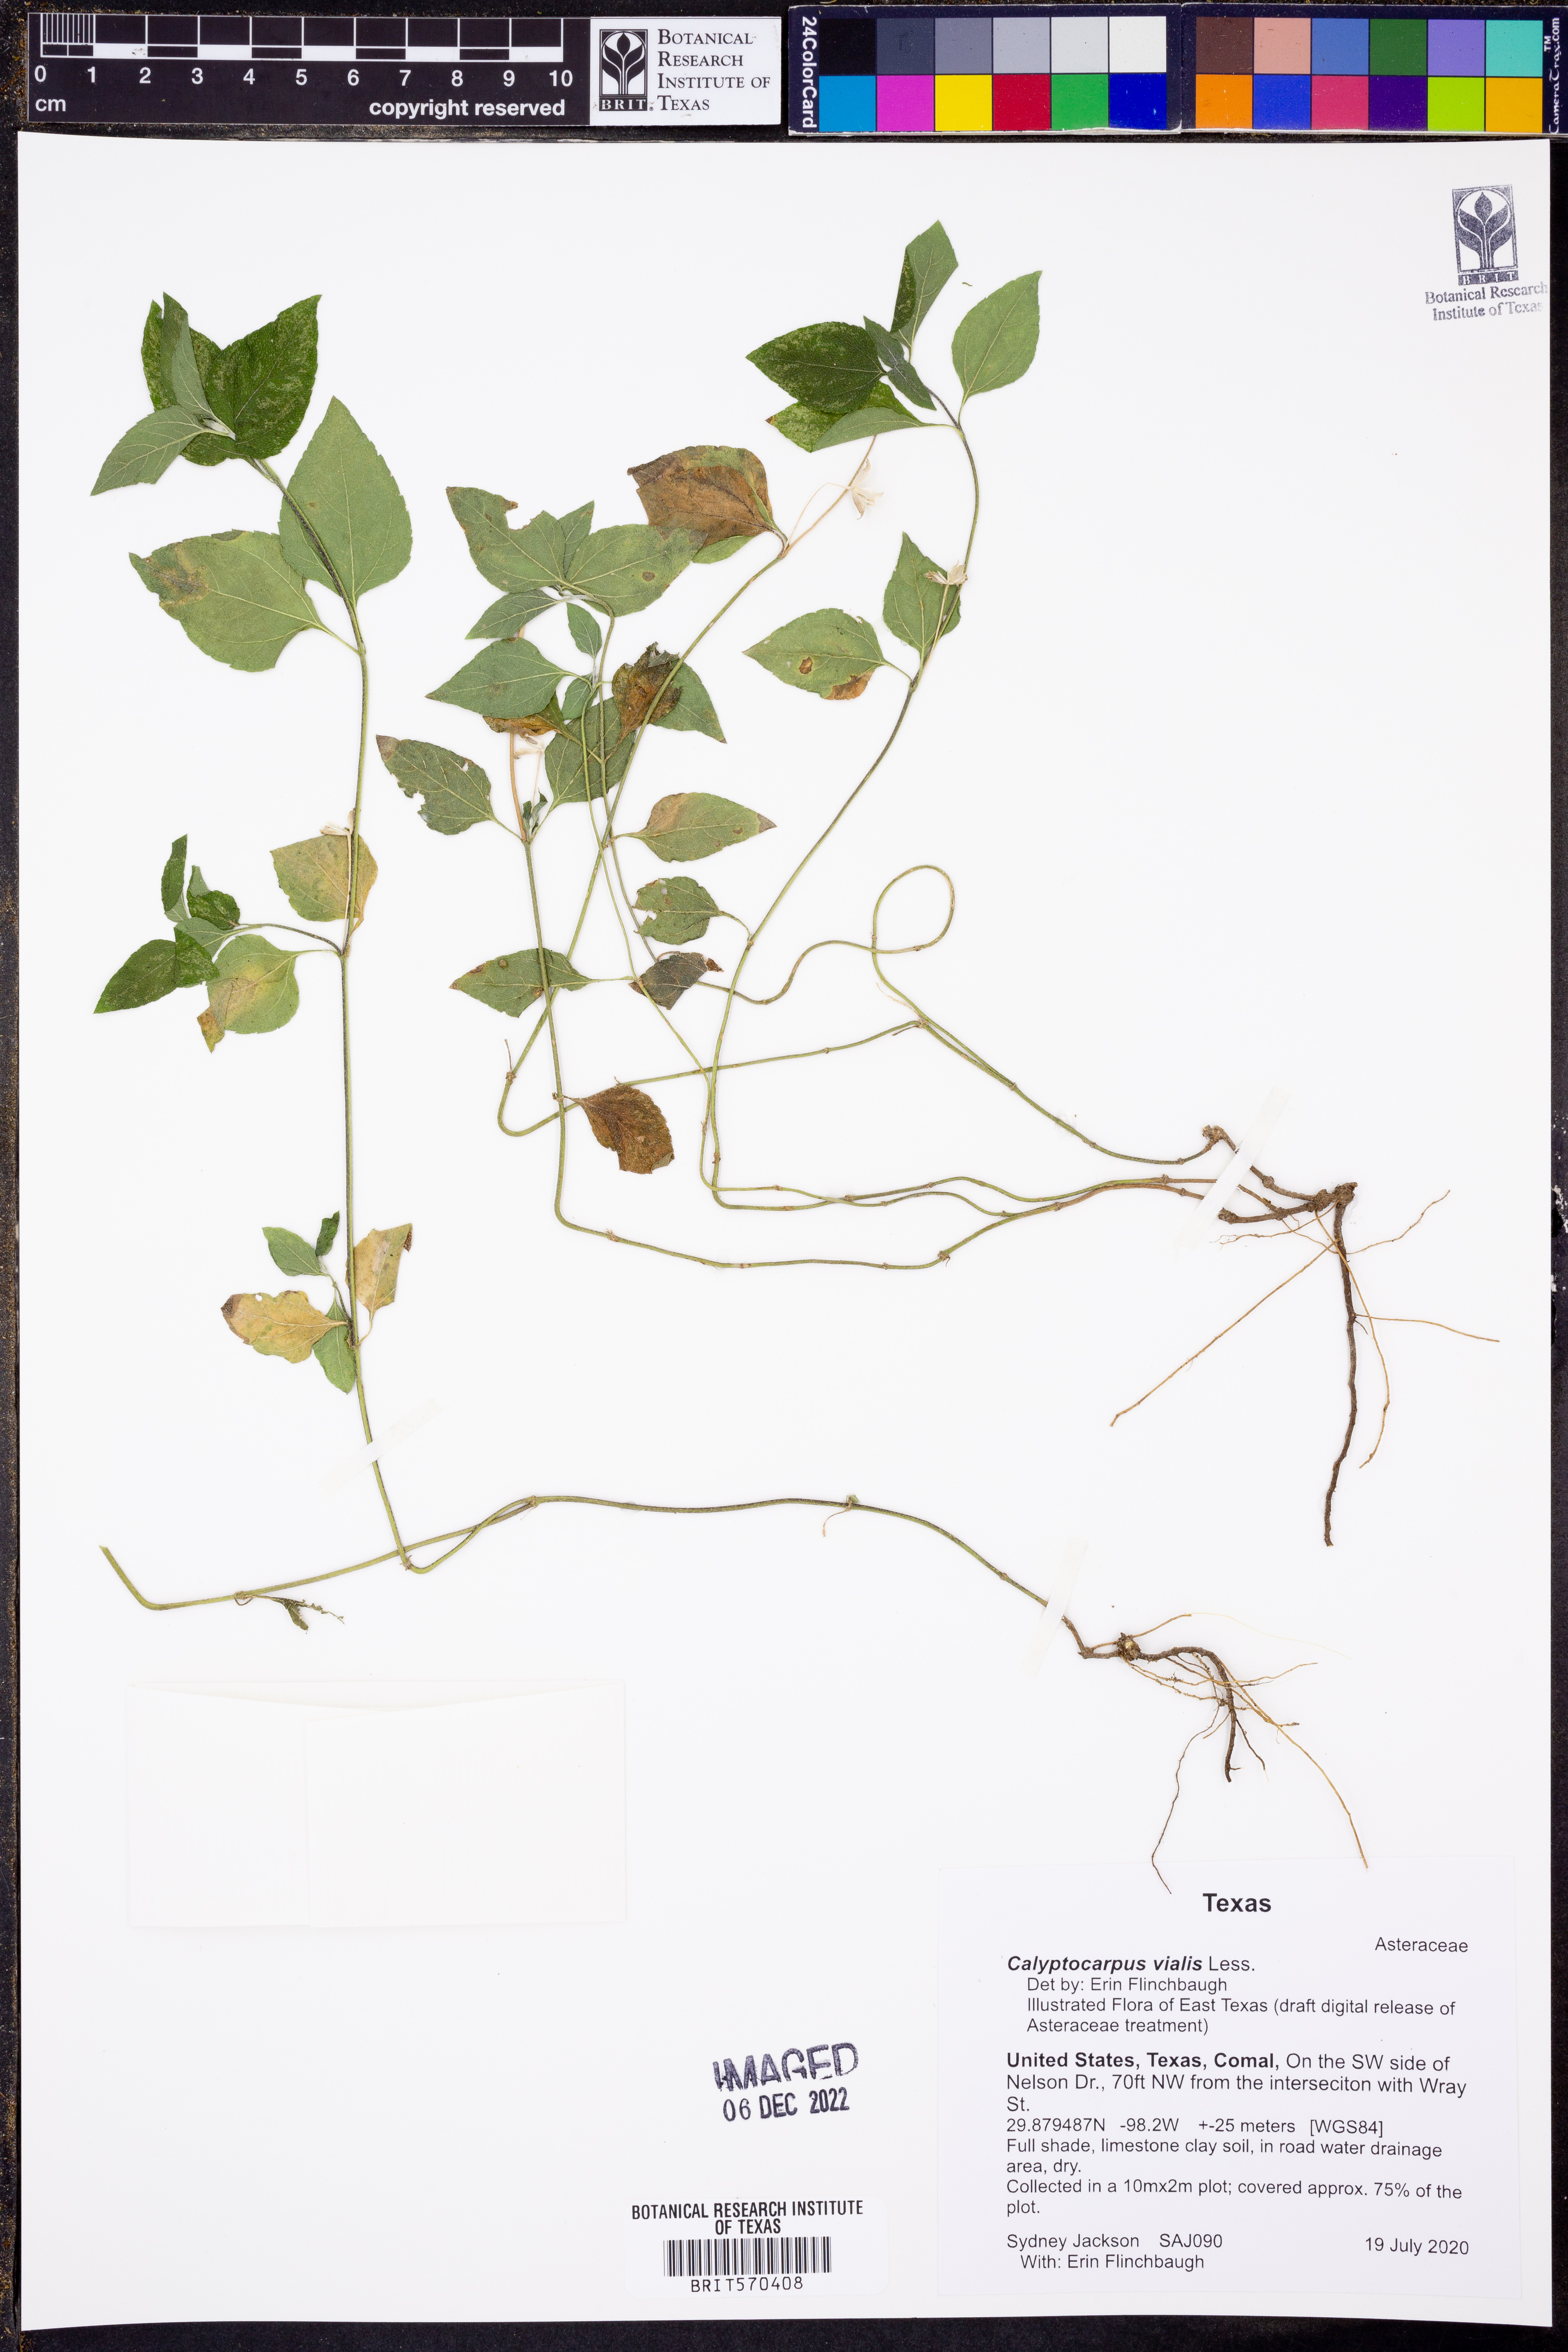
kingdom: Plantae
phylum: Tracheophyta
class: Magnoliopsida
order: Asterales
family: Asteraceae
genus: Calyptocarpus
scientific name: Calyptocarpus vialis
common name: Straggler daisy
